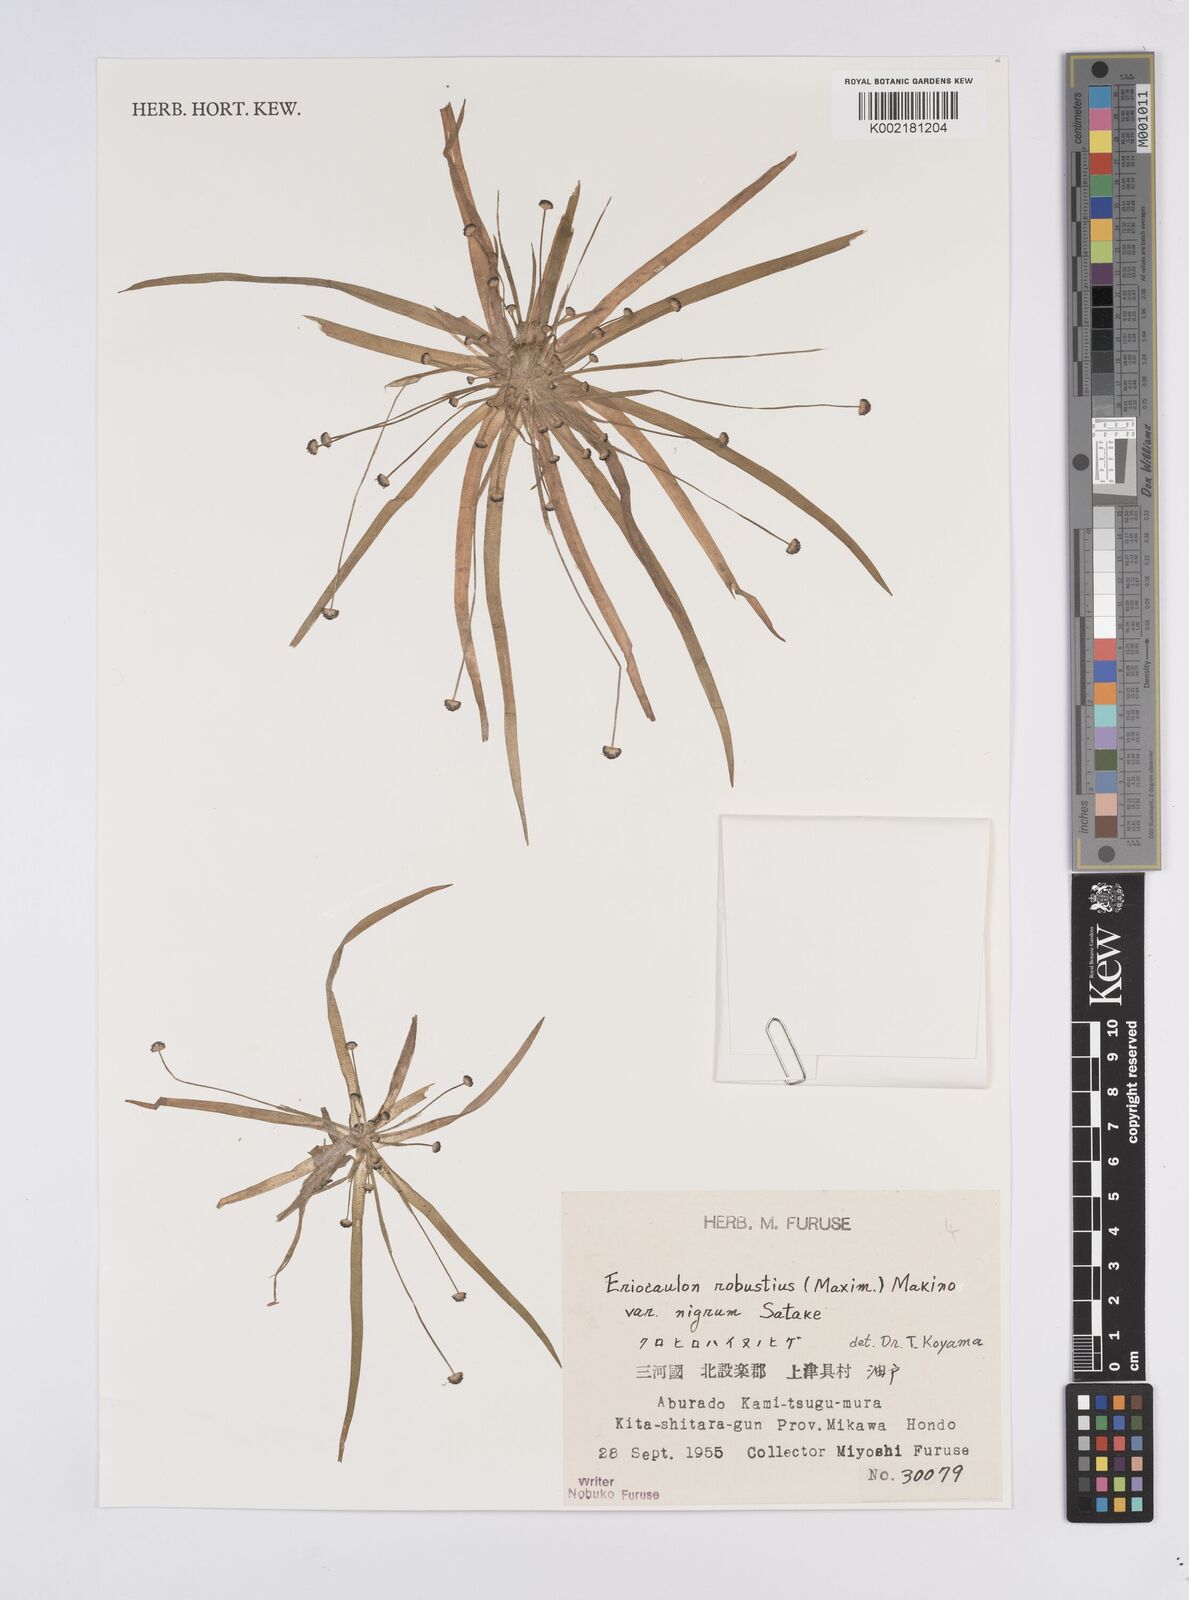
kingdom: Plantae
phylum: Tracheophyta
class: Liliopsida
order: Poales
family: Eriocaulaceae
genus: Eriocaulon
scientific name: Eriocaulon alpestre
